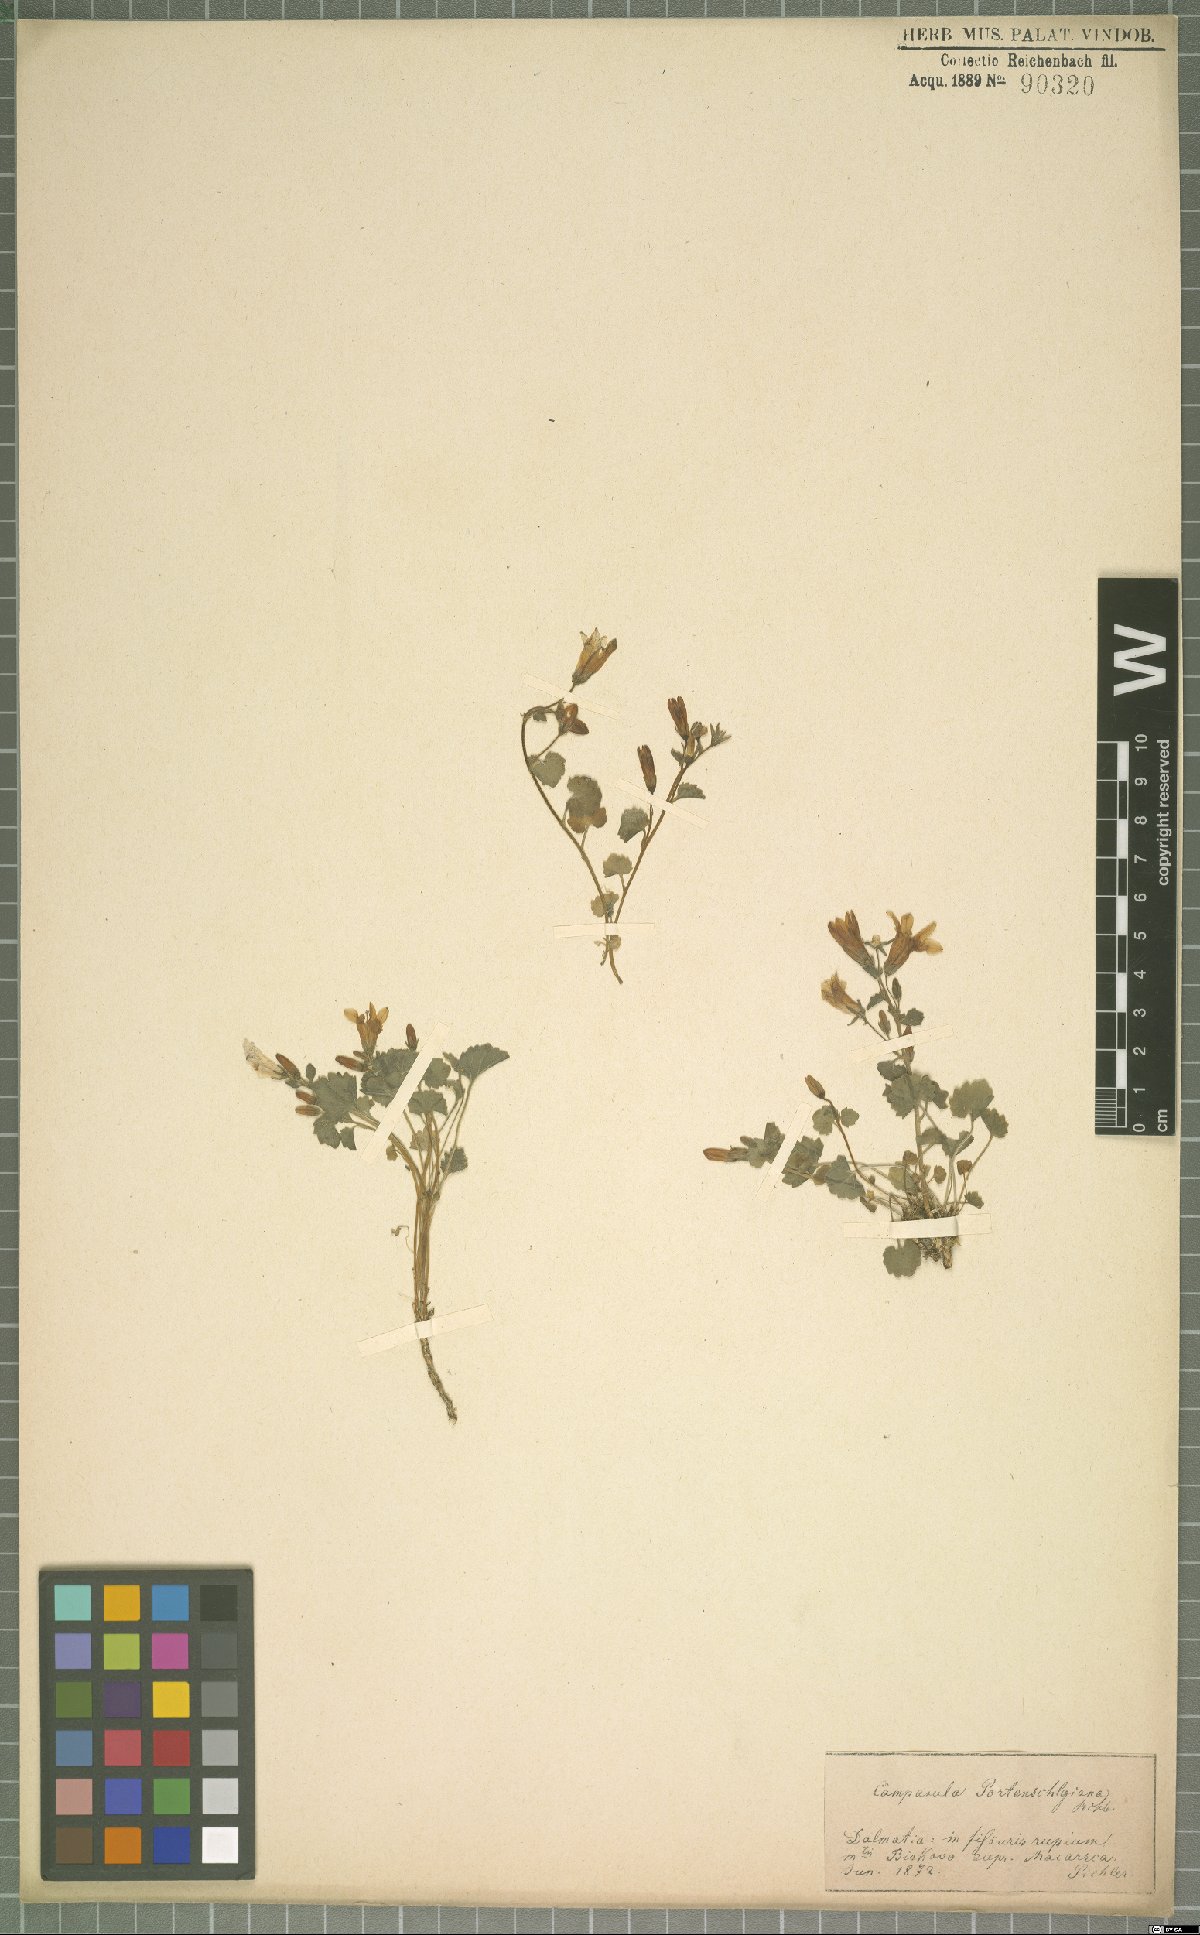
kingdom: Plantae
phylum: Tracheophyta
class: Magnoliopsida
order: Asterales
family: Campanulaceae
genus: Campanula
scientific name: Campanula portenschlagiana
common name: Adria bellflower
